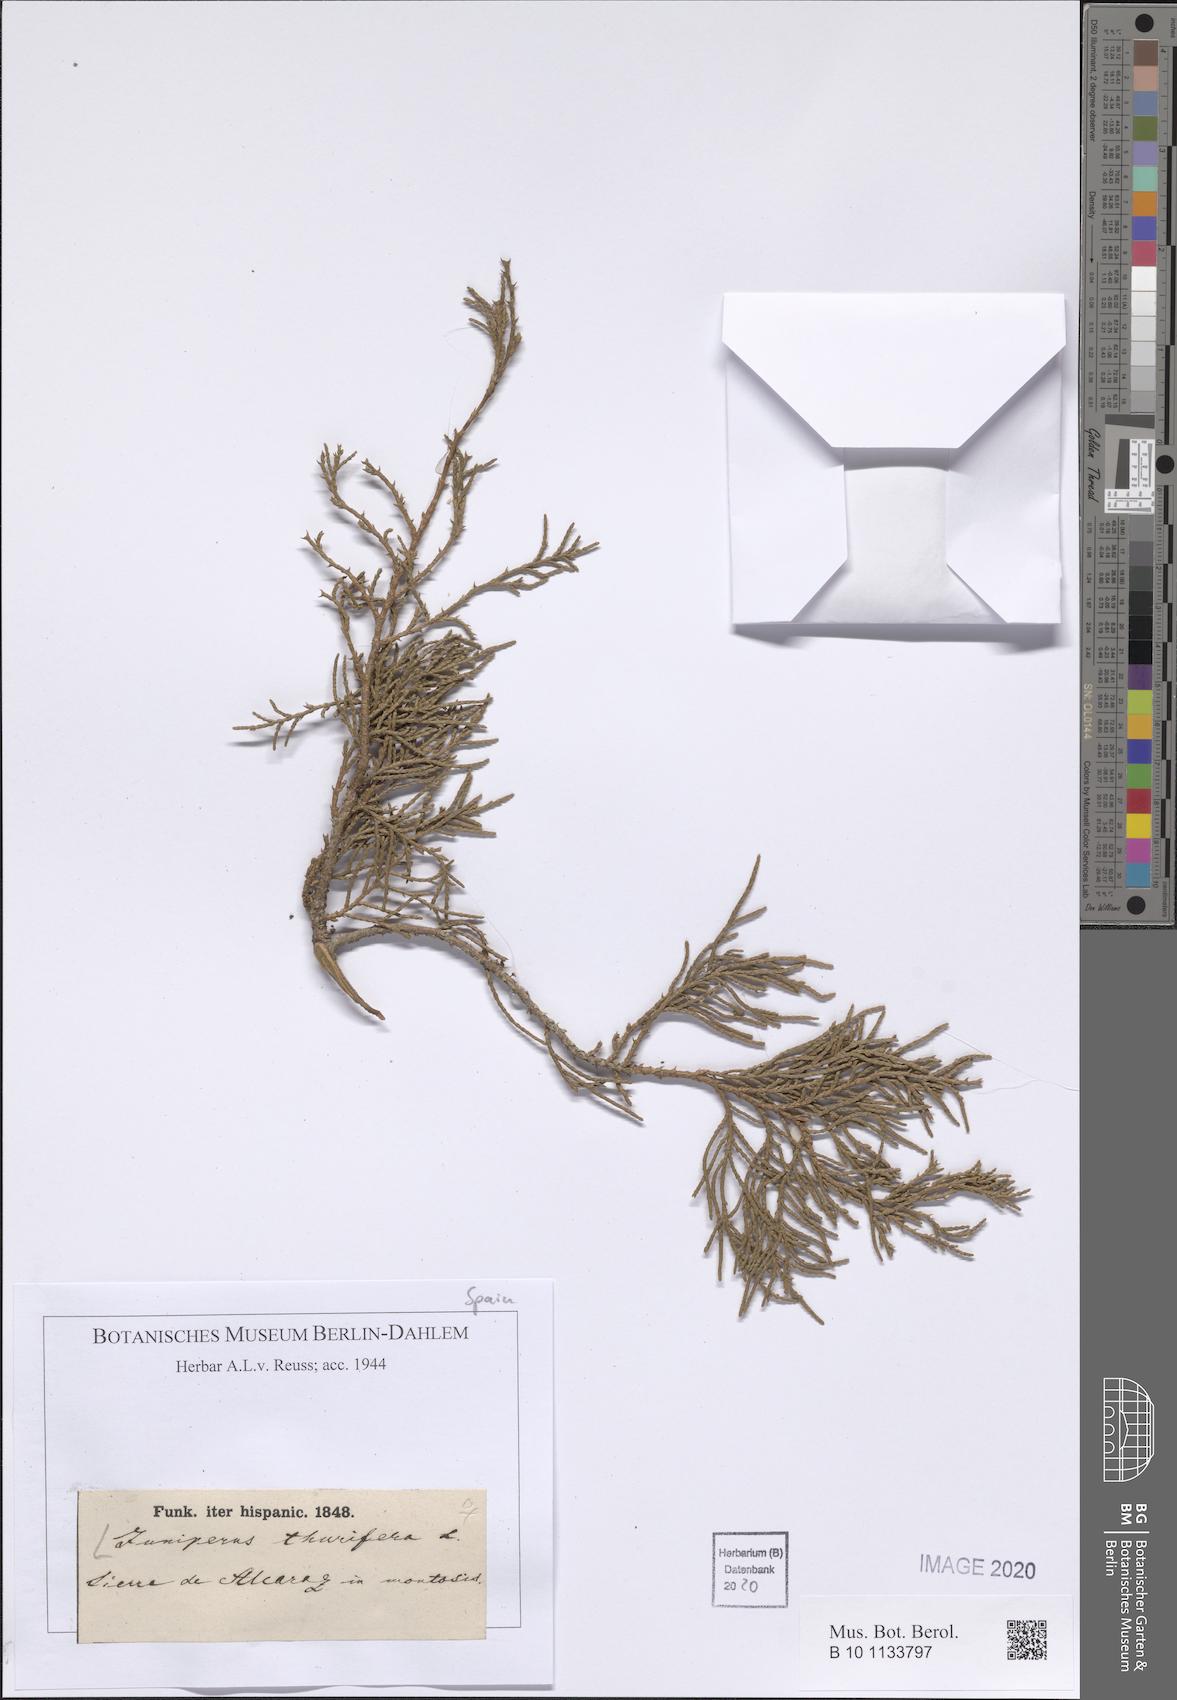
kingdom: Plantae
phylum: Tracheophyta
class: Pinopsida
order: Pinales
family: Cupressaceae
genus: Juniperus
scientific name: Juniperus thurifera
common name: Incense juniper
